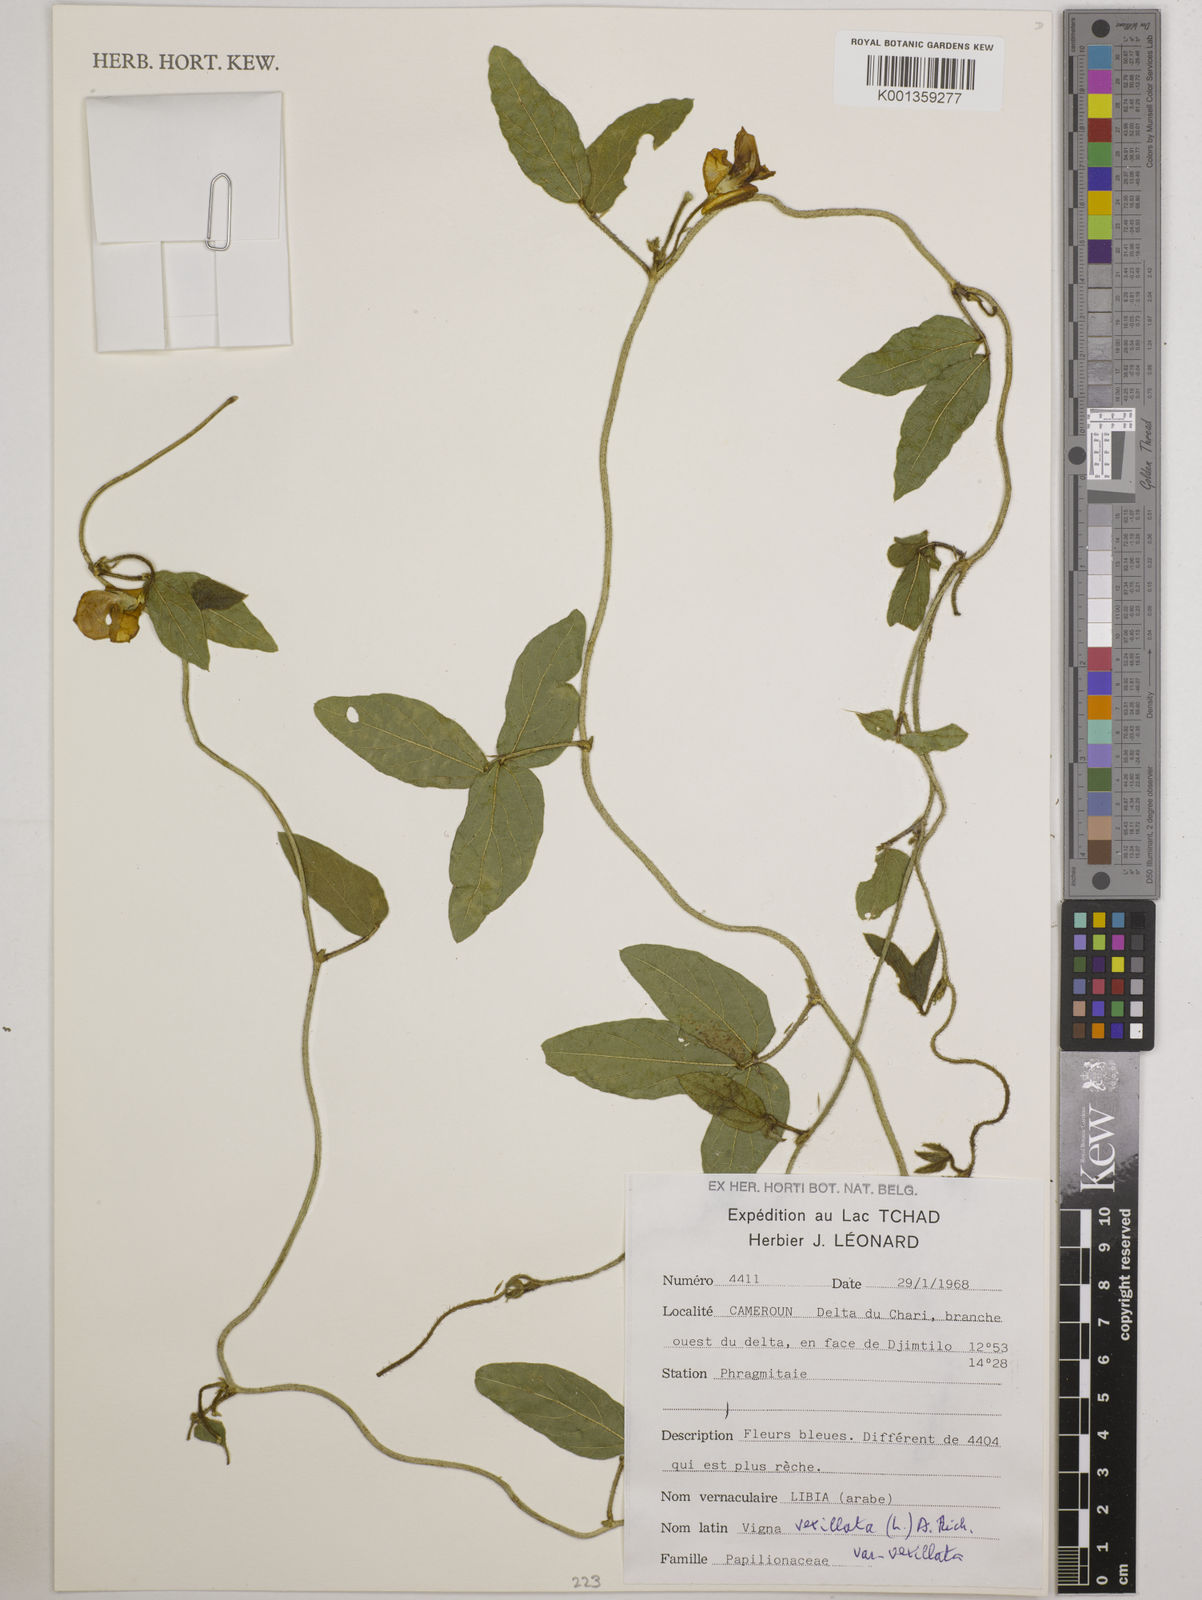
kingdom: Plantae
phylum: Tracheophyta
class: Magnoliopsida
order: Fabales
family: Fabaceae
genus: Vigna
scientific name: Vigna vexillata
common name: Zombi pea
